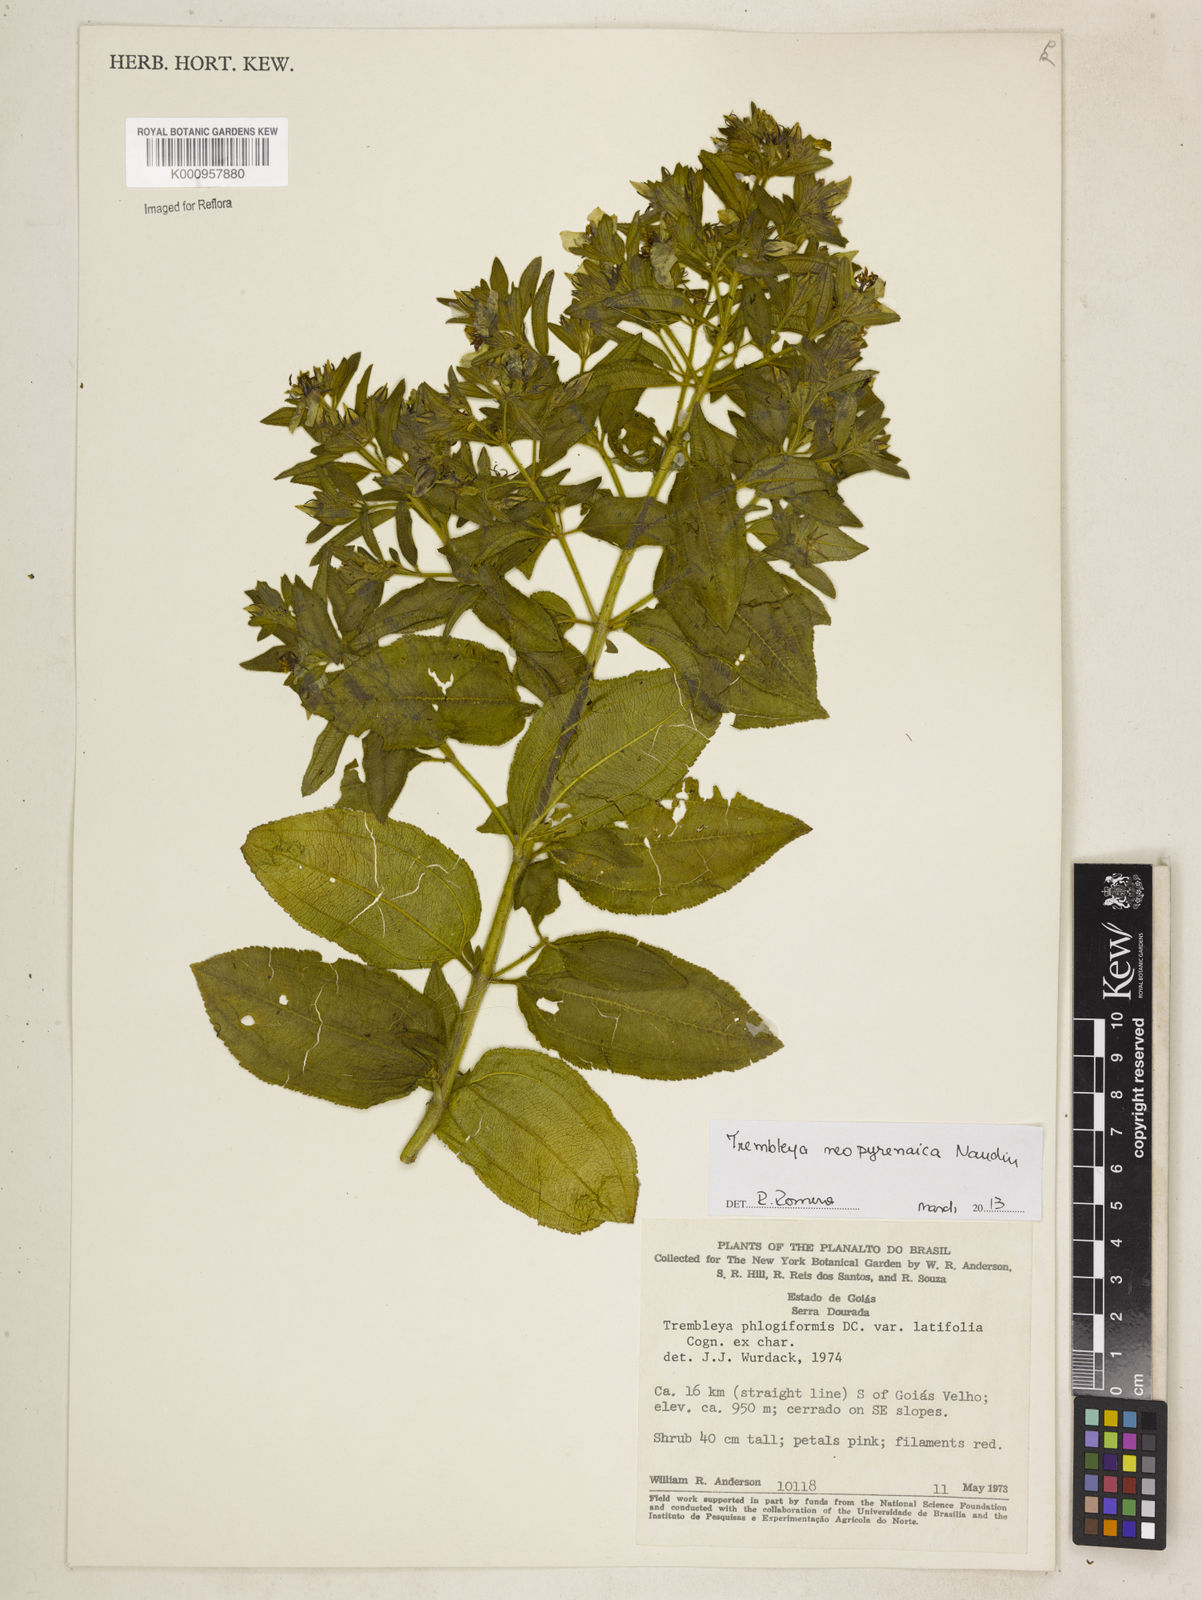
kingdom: Plantae
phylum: Tracheophyta
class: Magnoliopsida
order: Myrtales
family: Melastomataceae
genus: Microlicia
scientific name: Microlicia neopyrenaica
